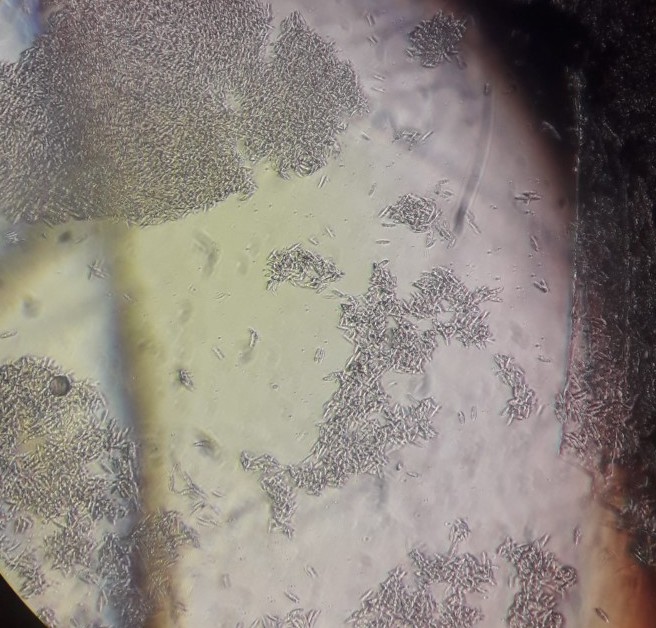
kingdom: Fungi
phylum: Ascomycota
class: Sordariomycetes
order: Hypocreales
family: Nectriaceae
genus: Volutella
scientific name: Volutella arundinis
